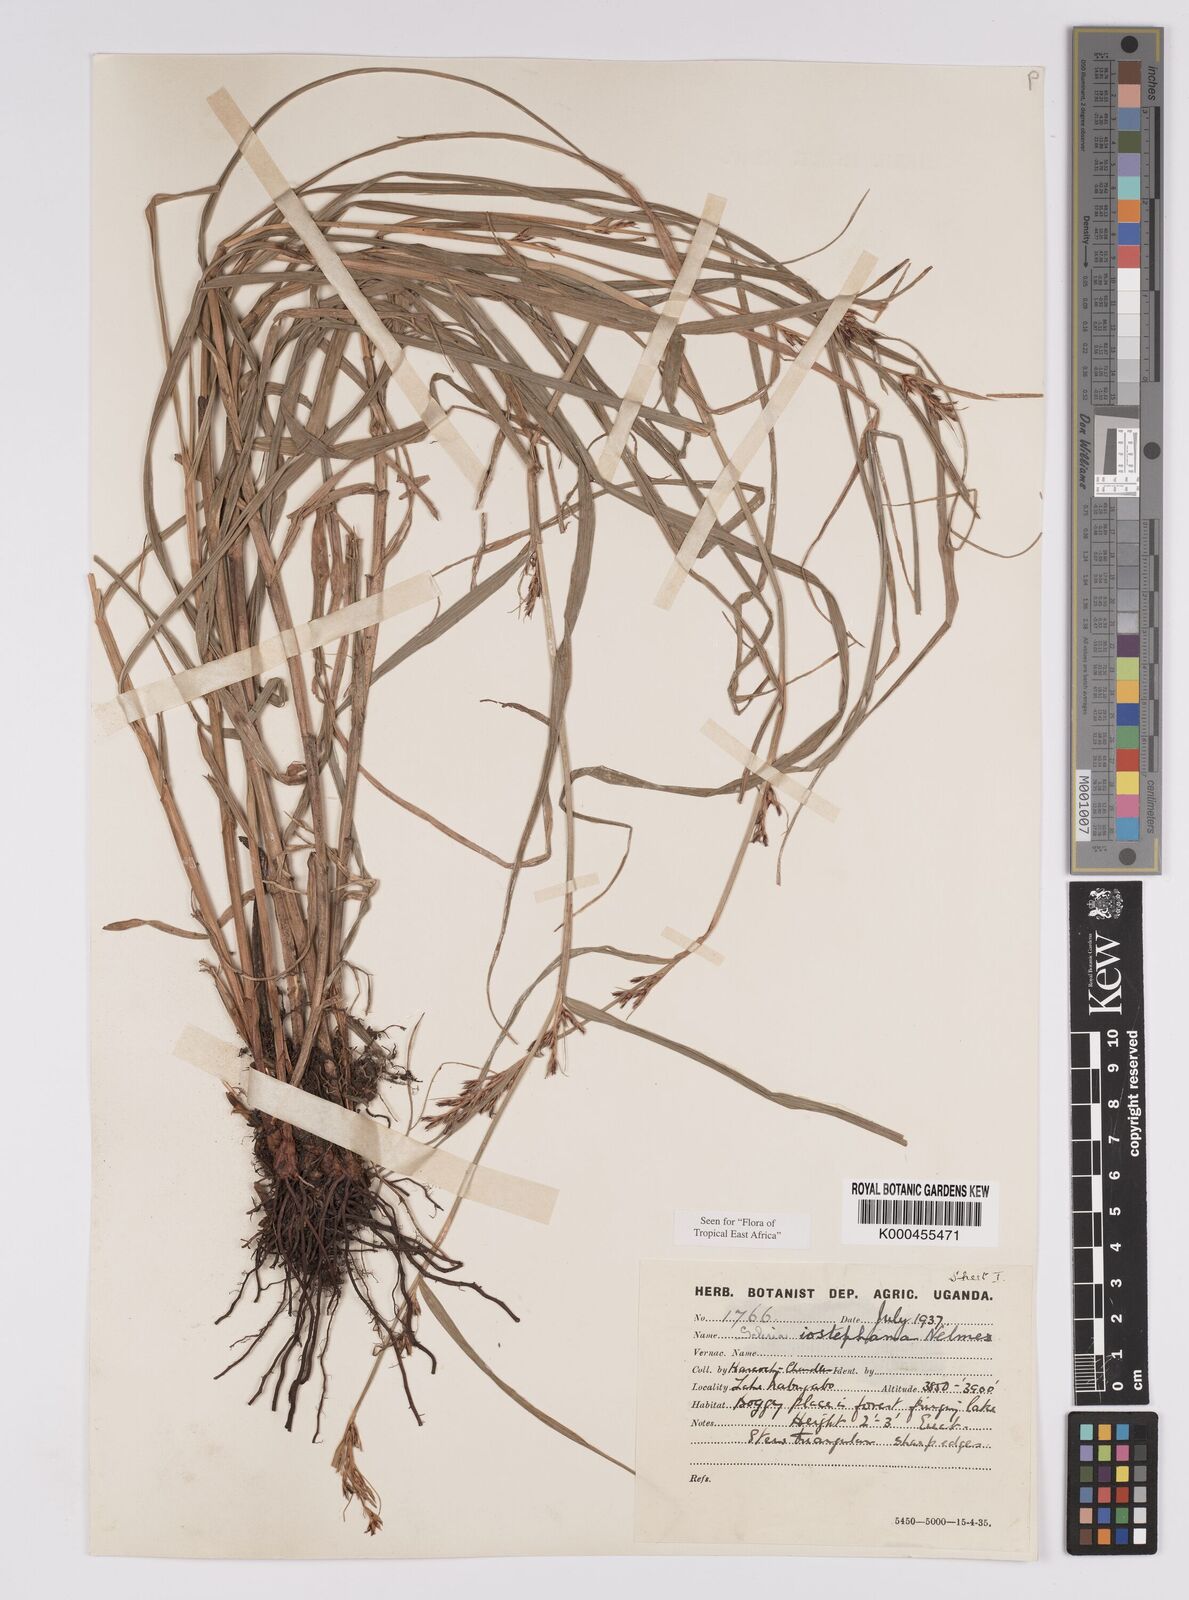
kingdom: Plantae
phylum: Tracheophyta
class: Liliopsida
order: Poales
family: Cyperaceae
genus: Scleria
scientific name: Scleria iostephana
